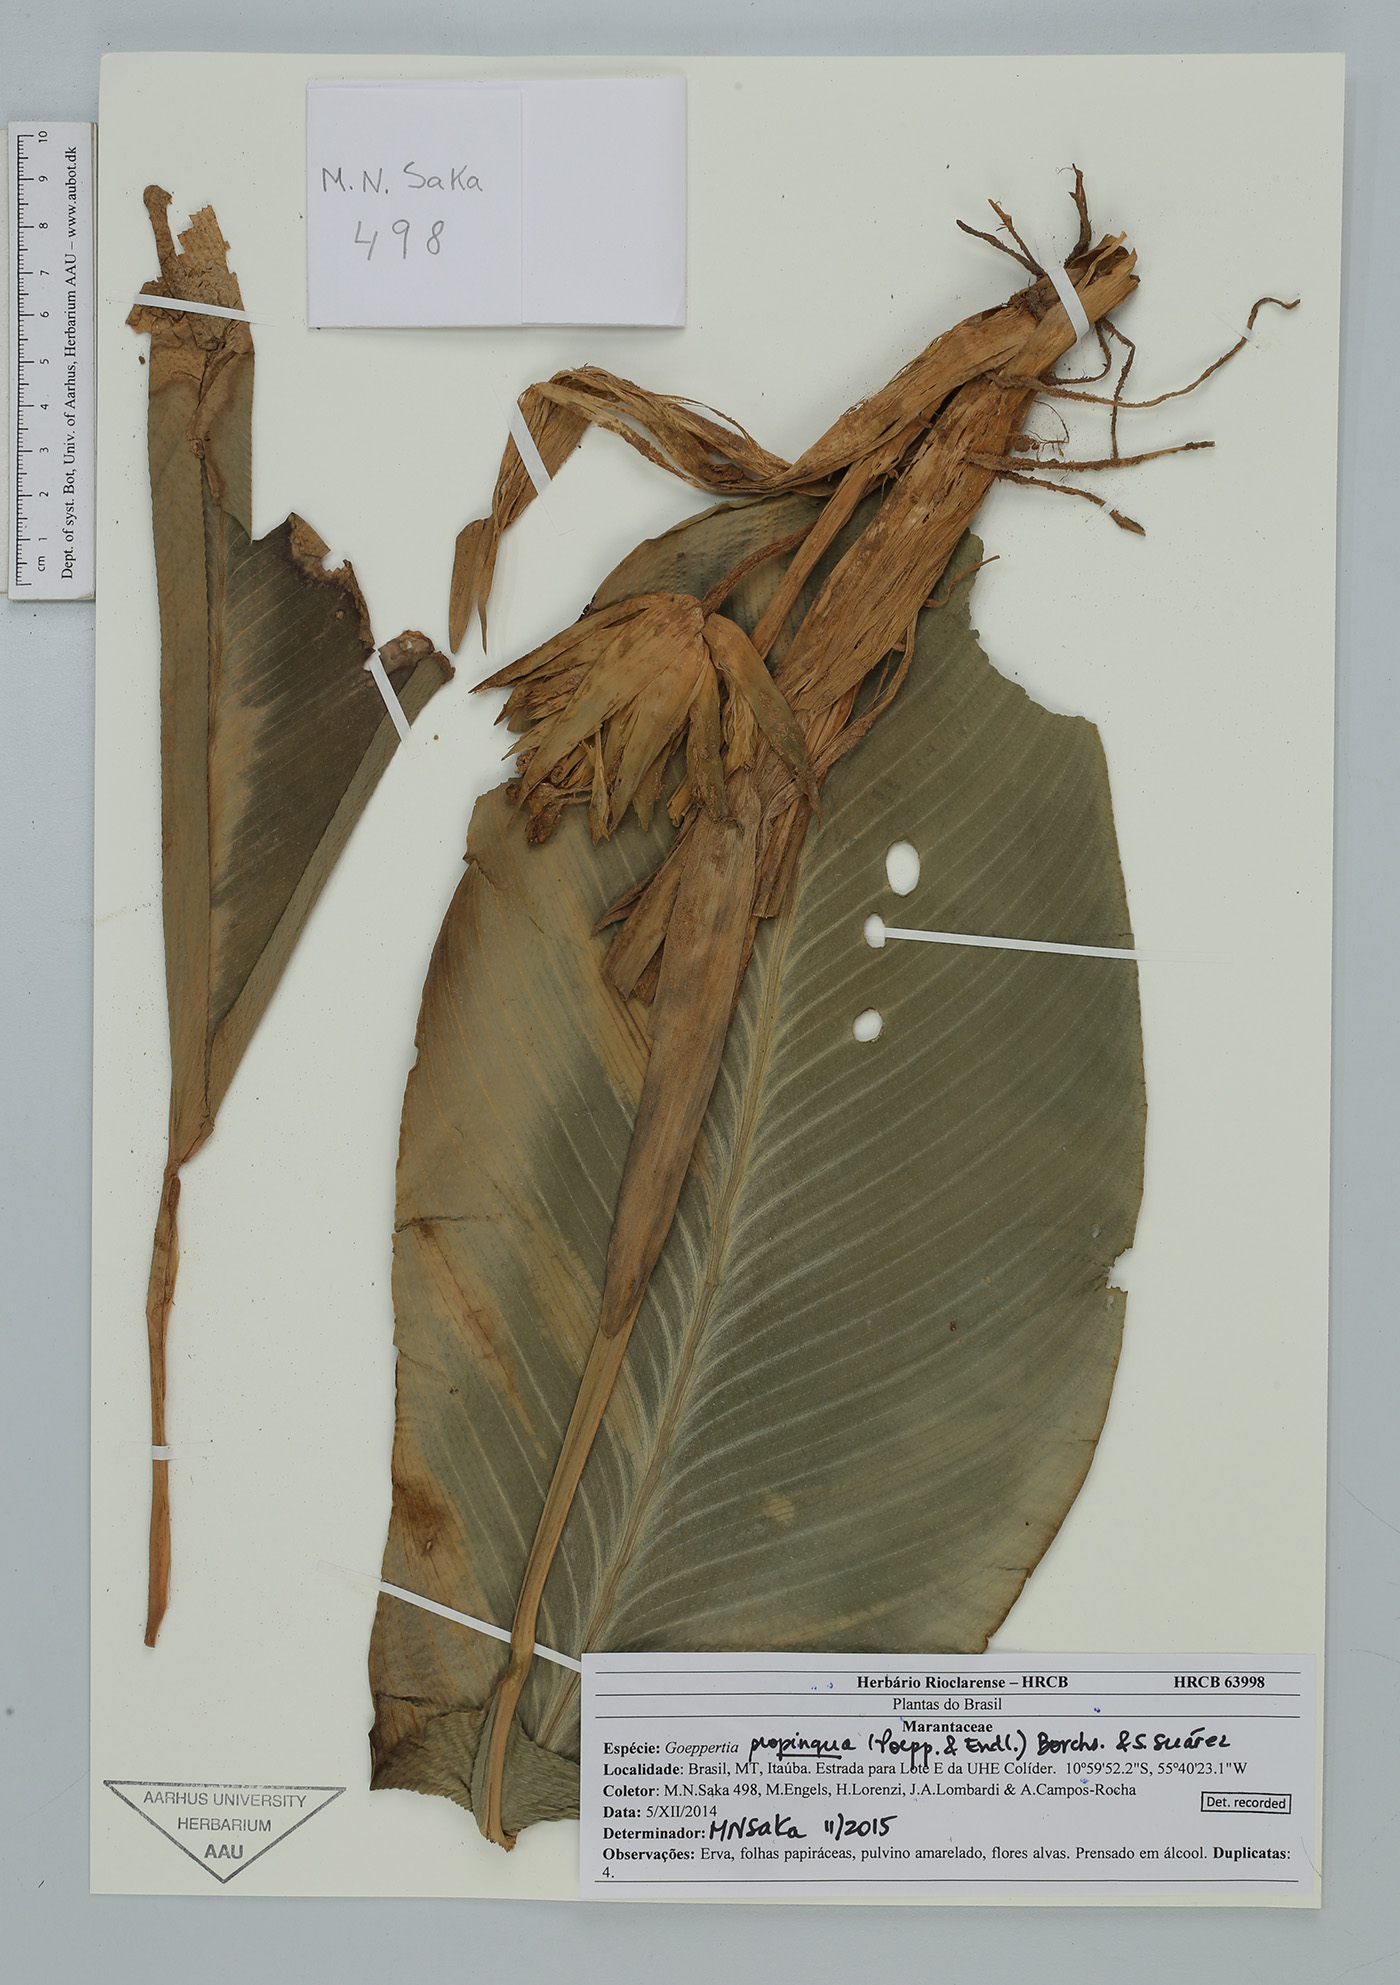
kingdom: Plantae
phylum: Tracheophyta
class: Liliopsida
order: Zingiberales
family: Marantaceae
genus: Goeppertia
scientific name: Goeppertia propinqua
